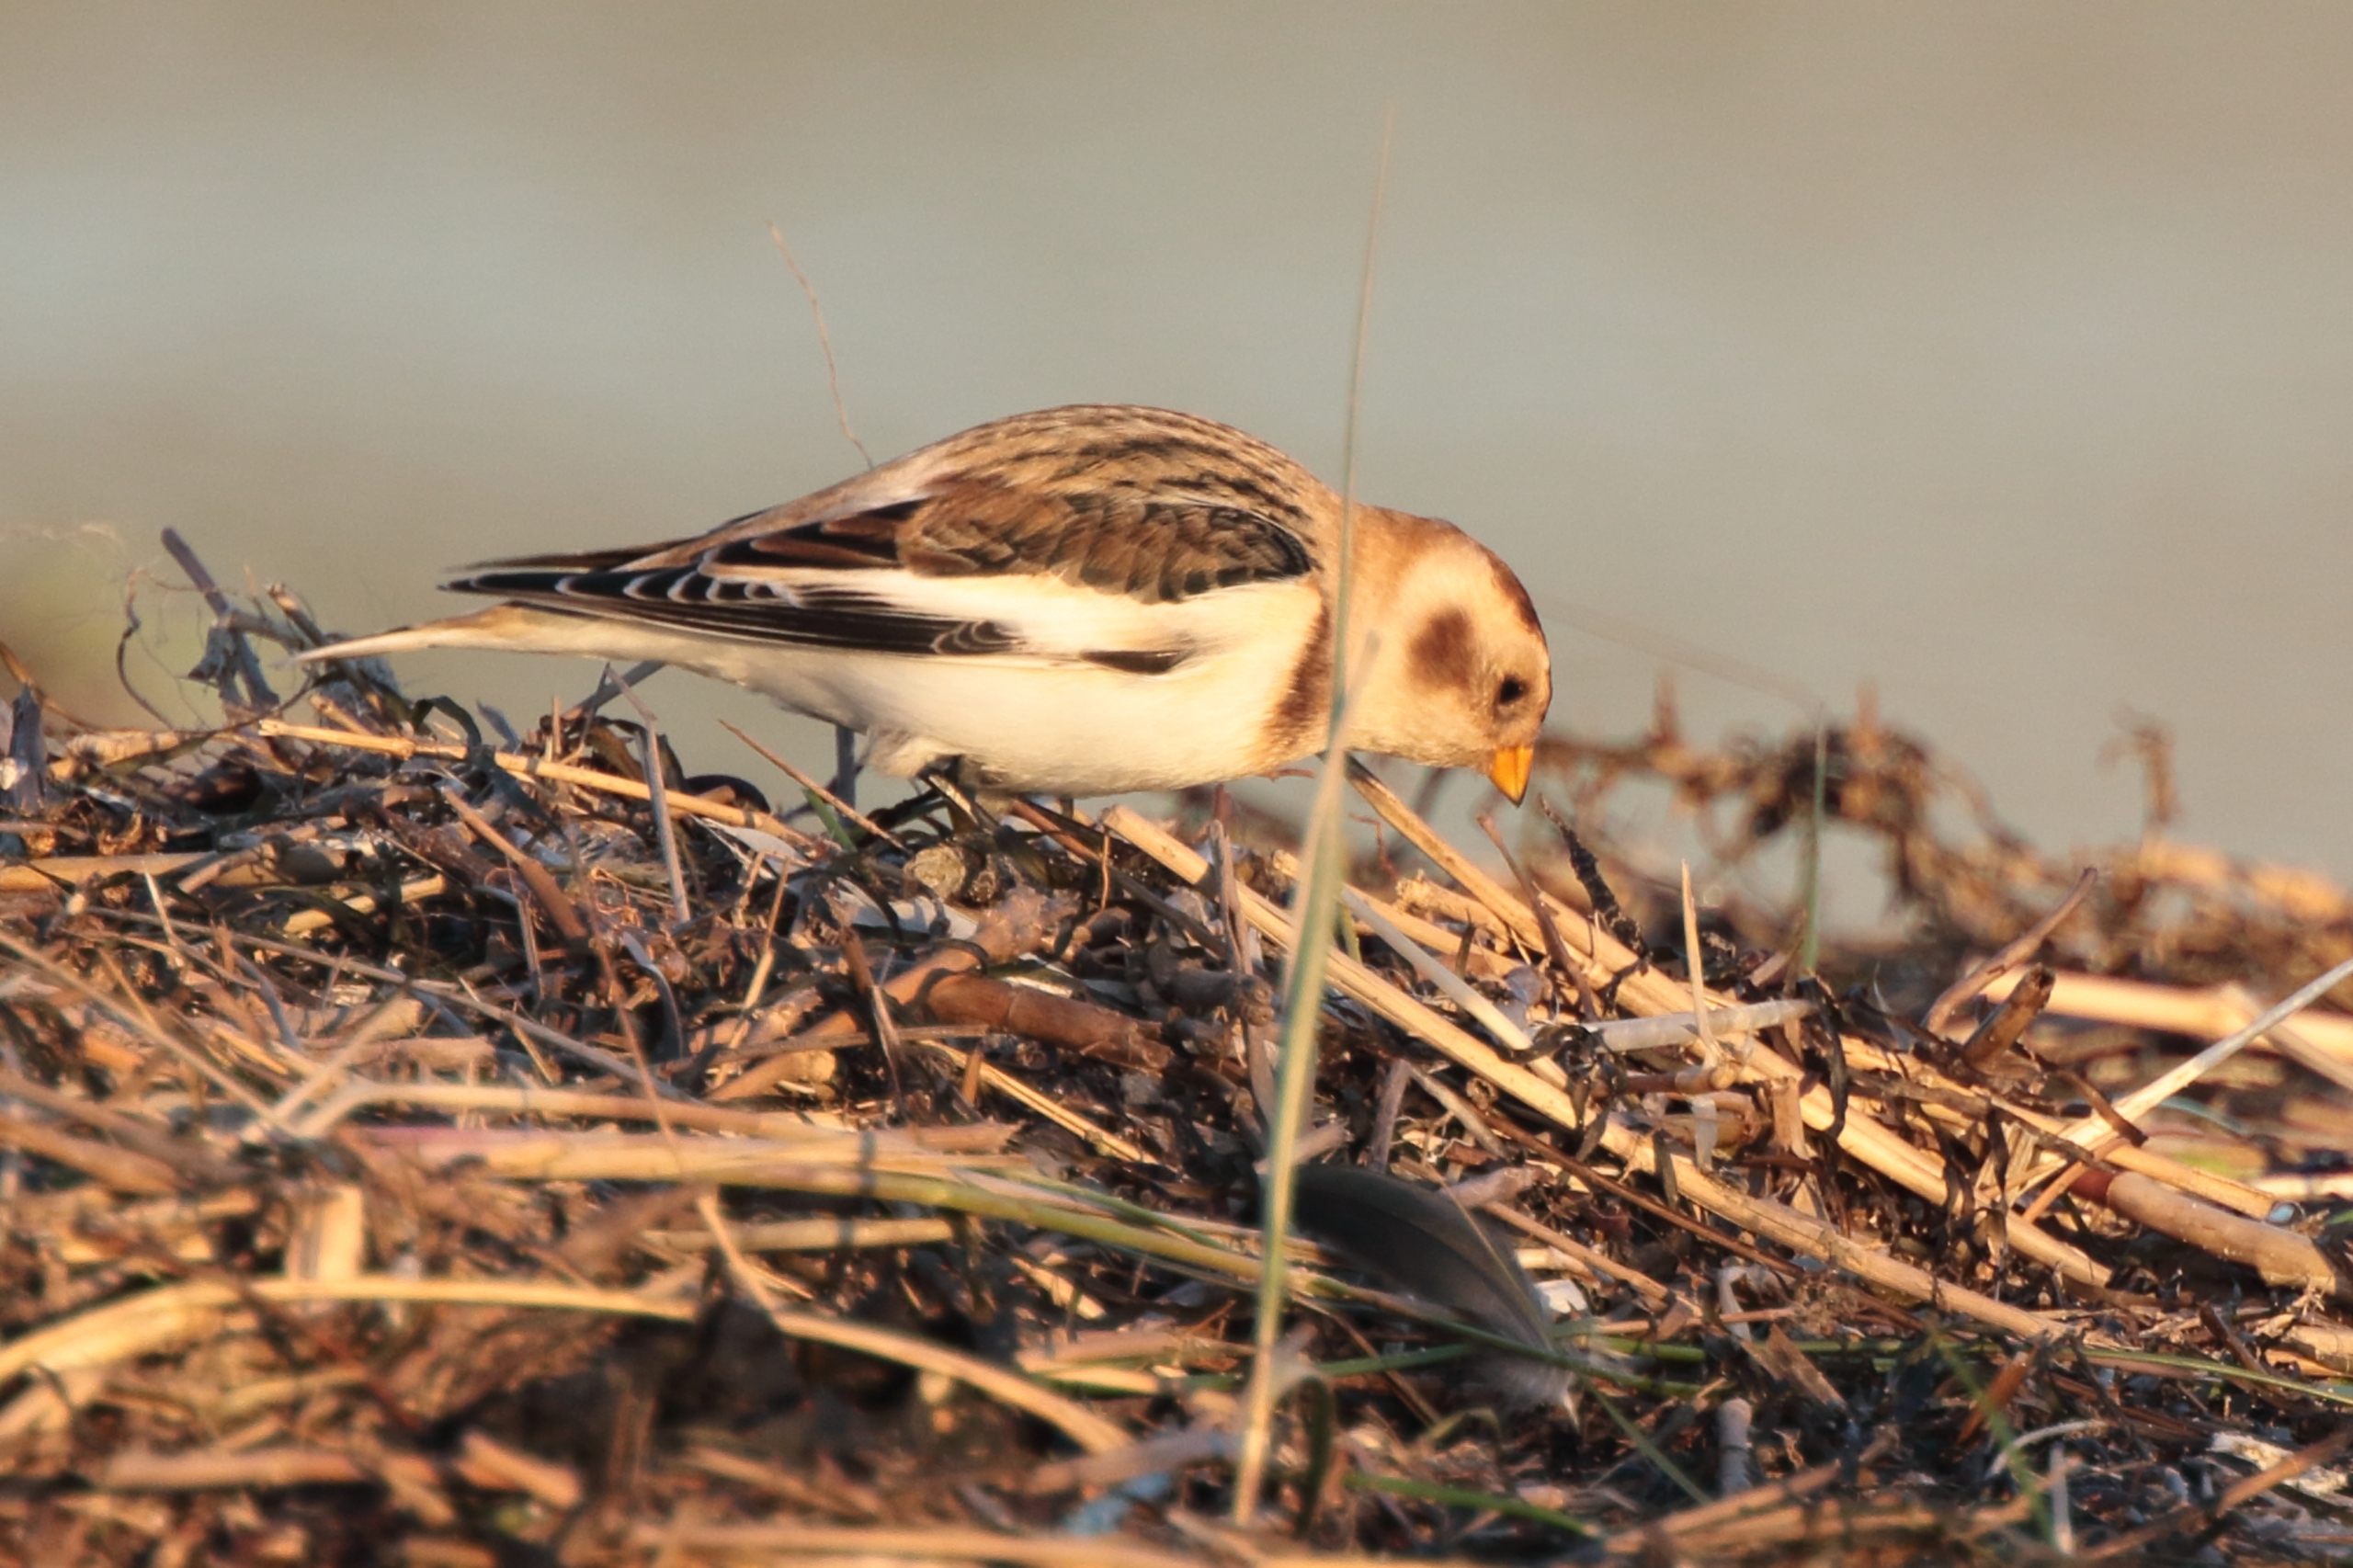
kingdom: Animalia
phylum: Chordata
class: Aves
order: Passeriformes
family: Calcariidae
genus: Plectrophenax
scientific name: Plectrophenax nivalis
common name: Snespurv
